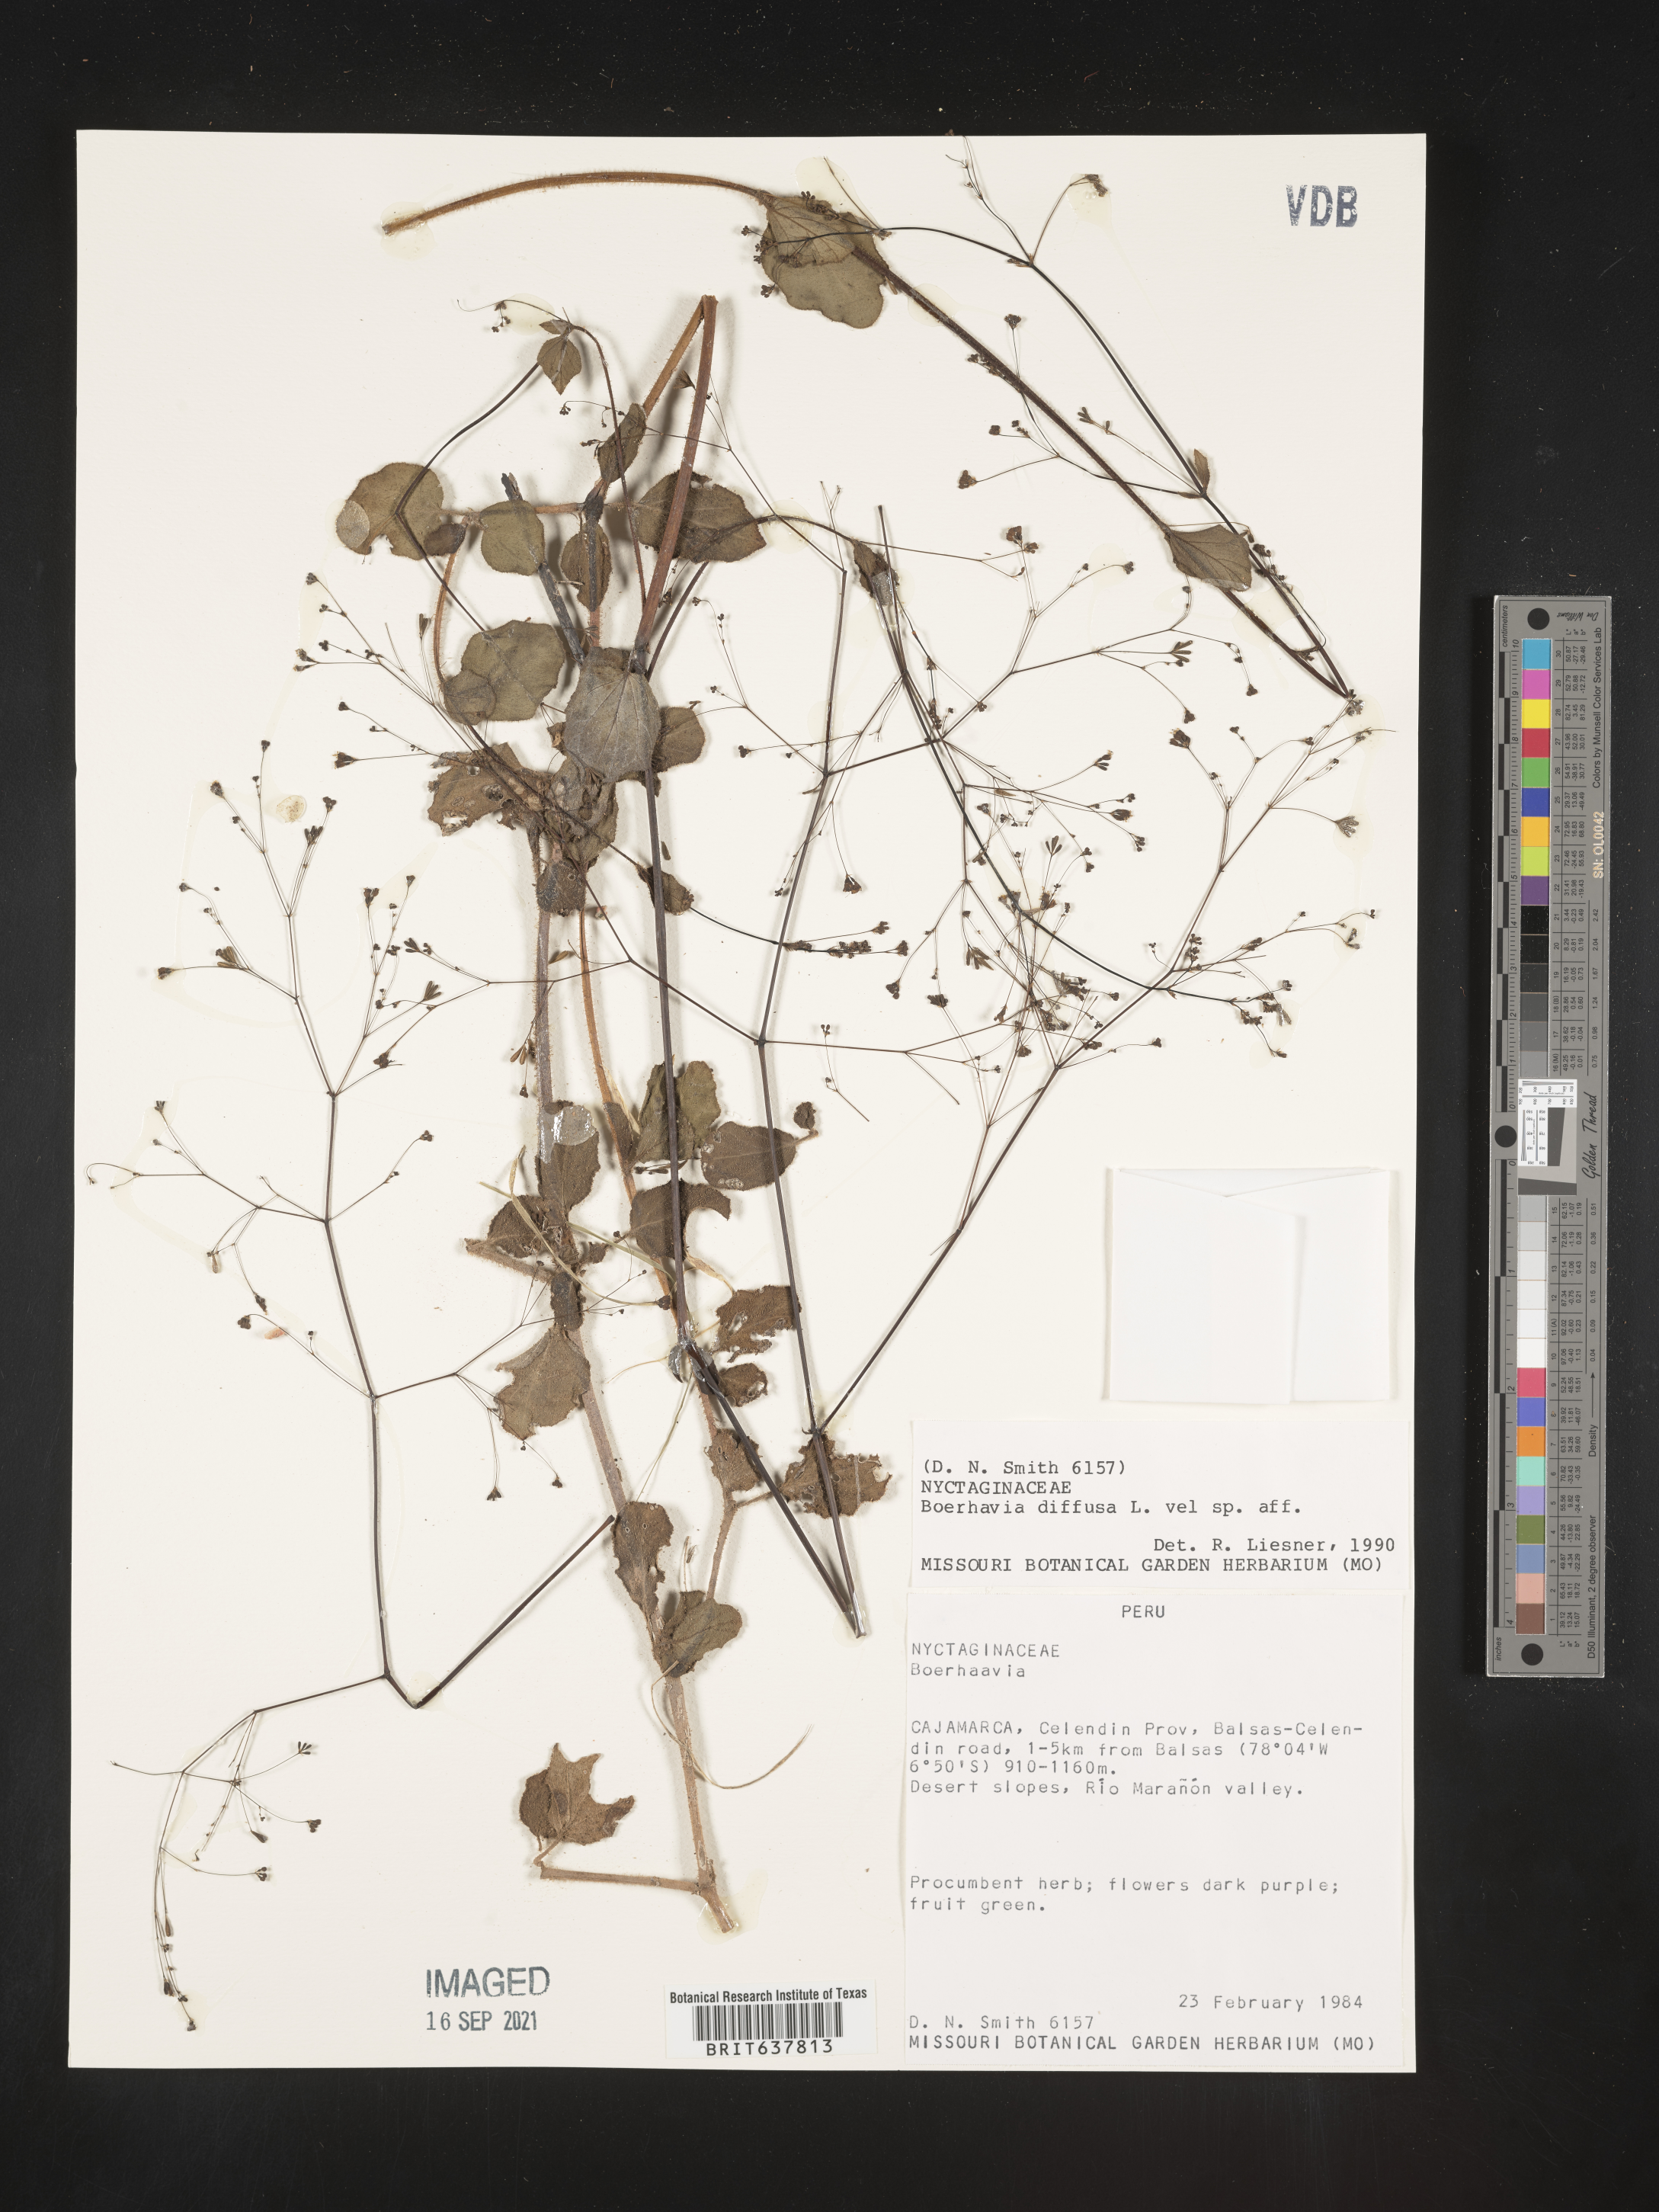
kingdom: Plantae
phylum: Tracheophyta
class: Magnoliopsida
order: Caryophyllales
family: Nyctaginaceae
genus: Boerhavia
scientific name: Boerhavia
